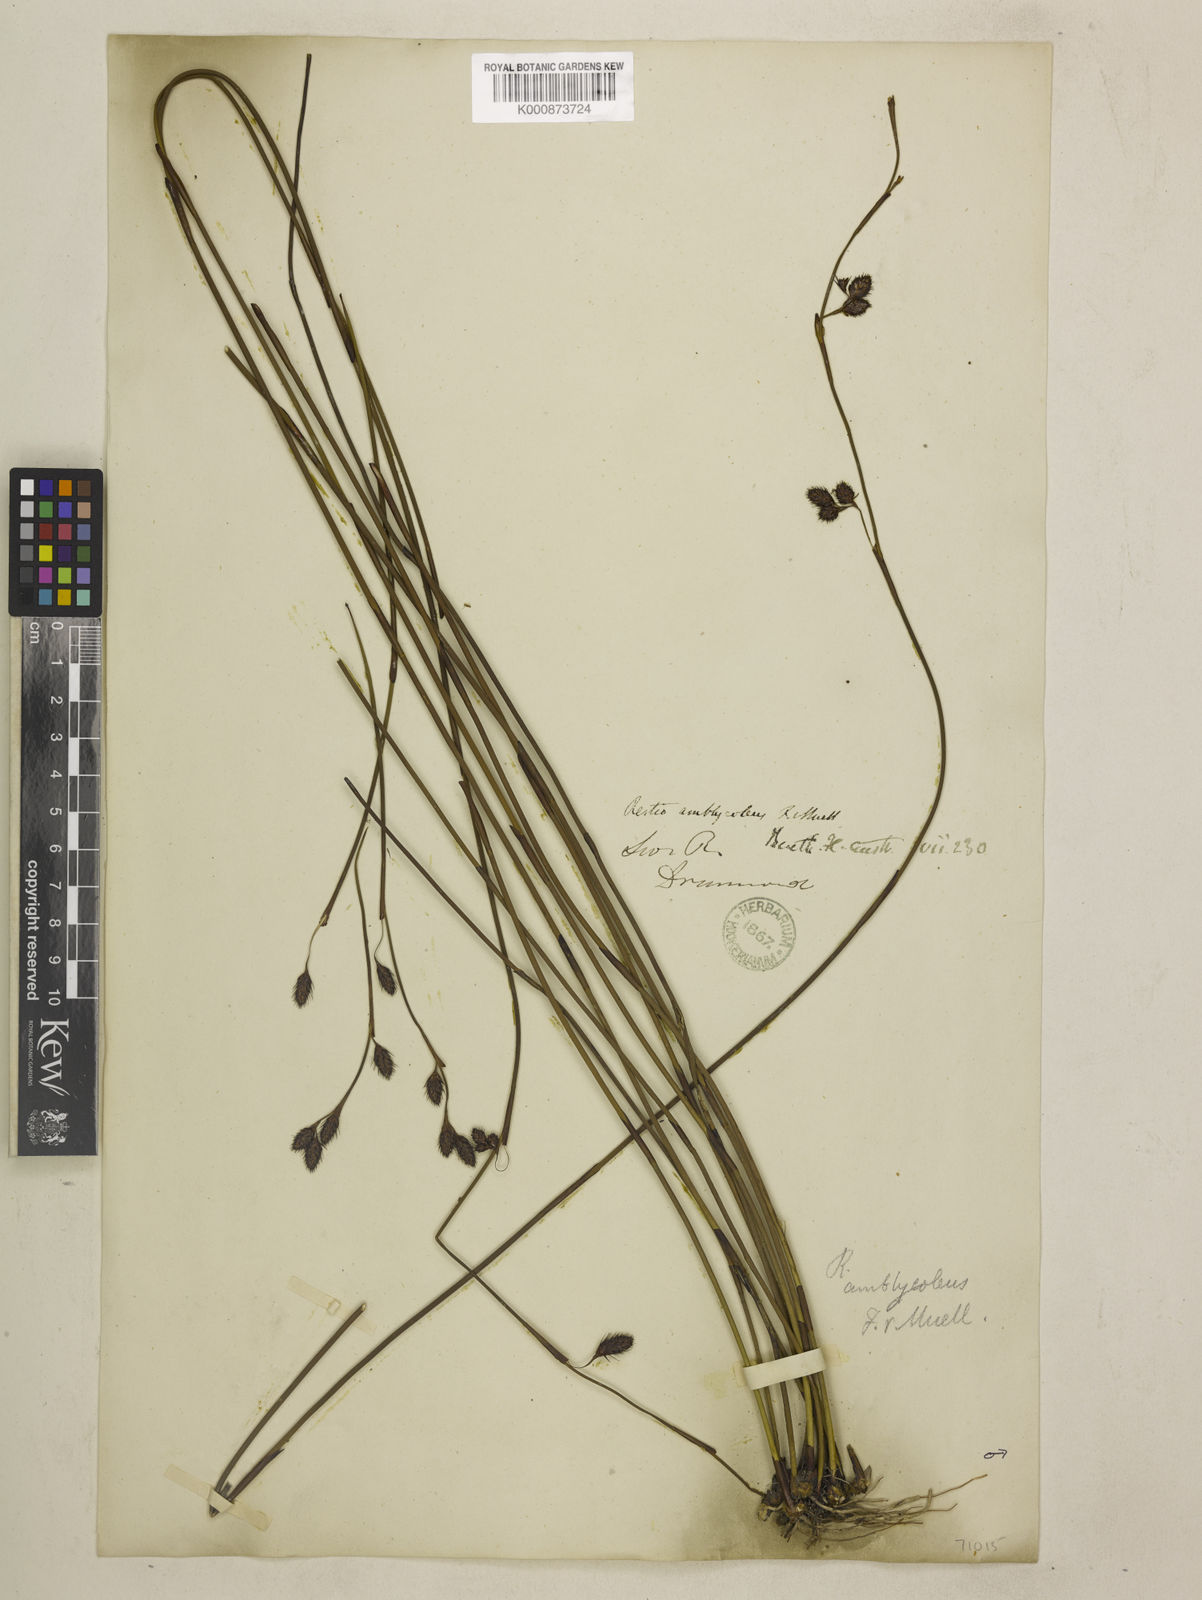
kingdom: Plantae
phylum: Tracheophyta
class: Liliopsida
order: Poales
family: Restionaceae
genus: Chordifex
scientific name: Chordifex amblycoleus
